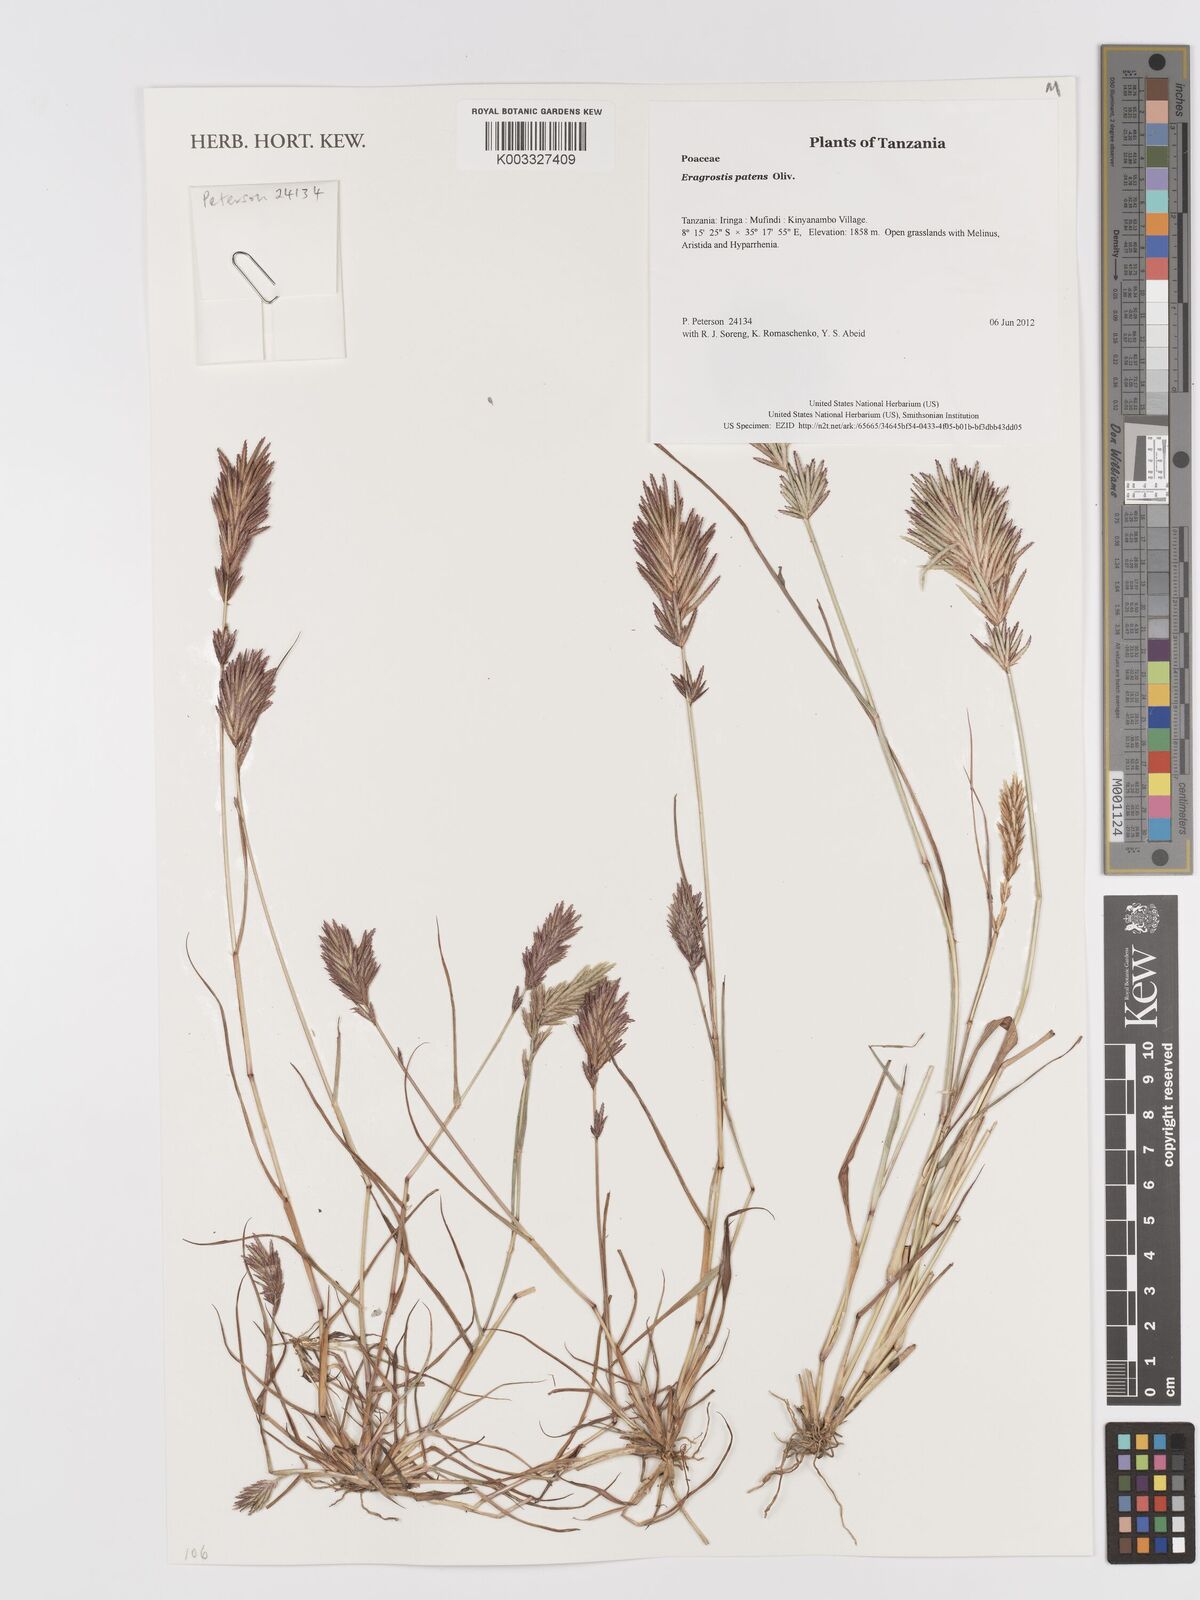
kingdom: Plantae
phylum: Tracheophyta
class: Liliopsida
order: Poales
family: Poaceae
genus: Eragrostis
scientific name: Eragrostis patens
